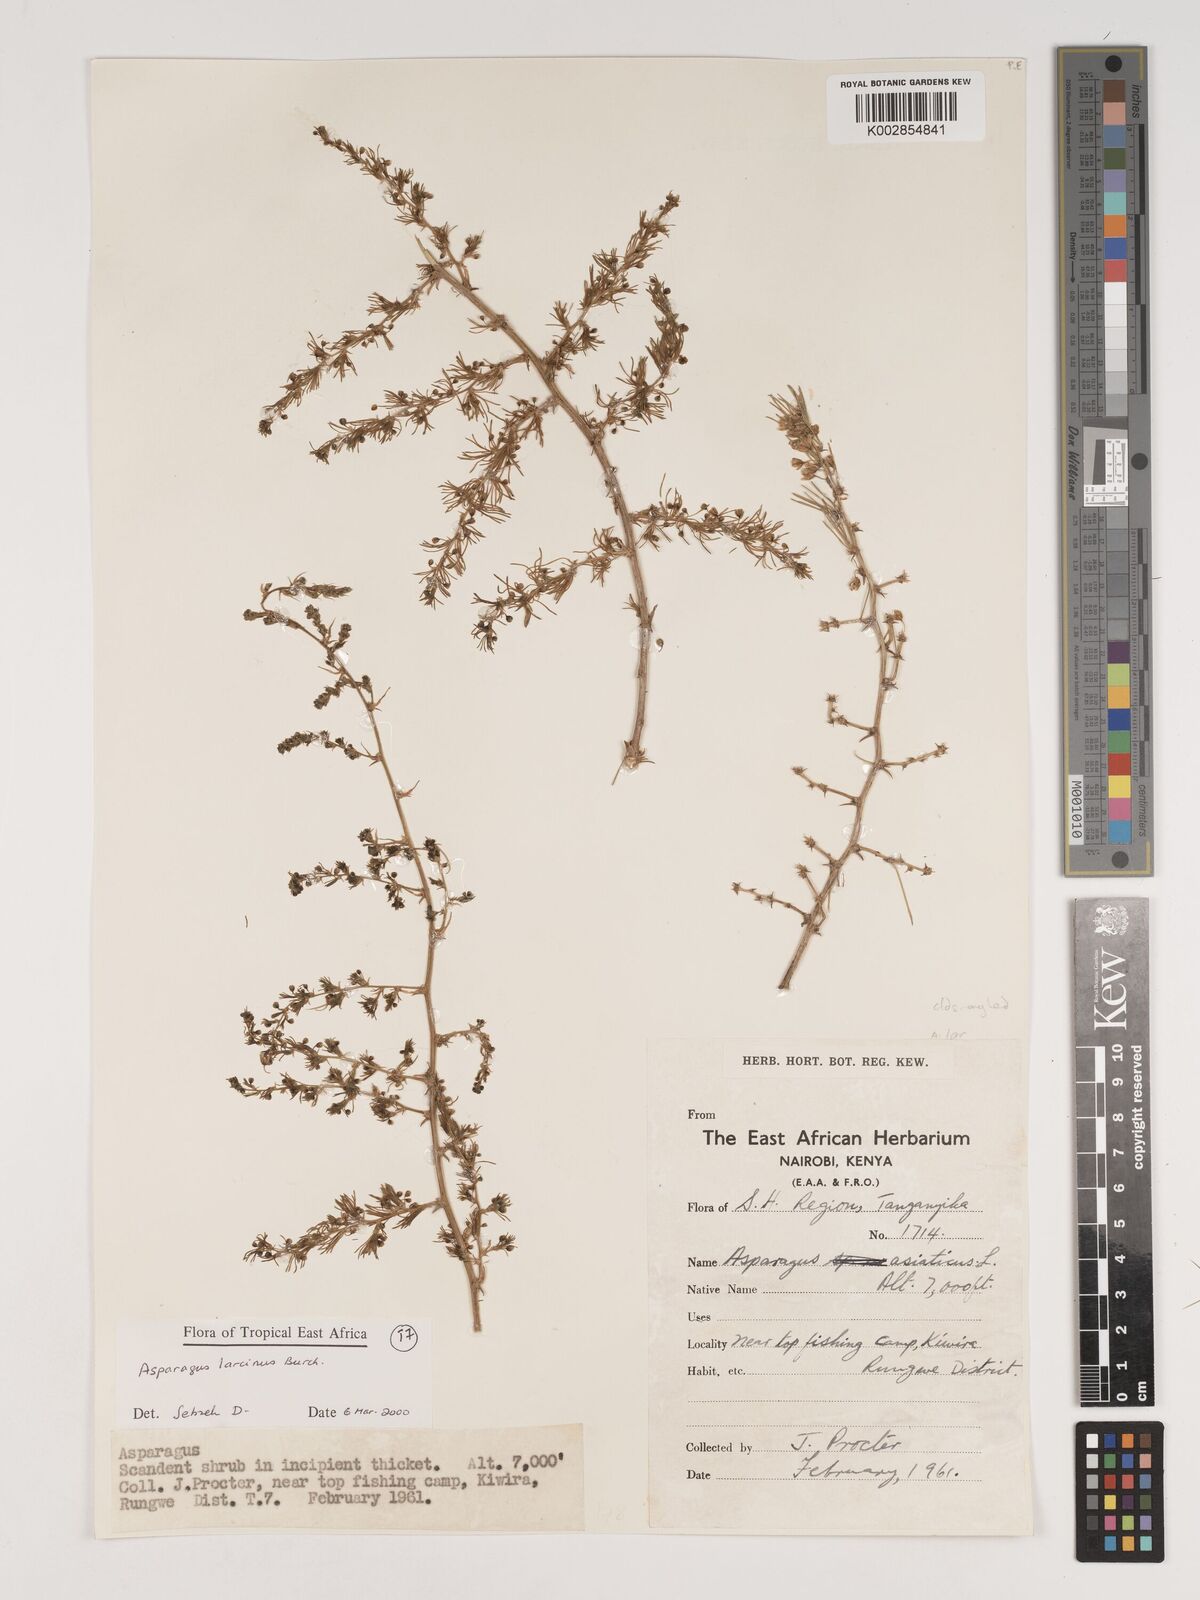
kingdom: Plantae
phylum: Tracheophyta
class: Liliopsida
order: Asparagales
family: Asparagaceae
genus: Asparagus
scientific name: Asparagus laricinus
